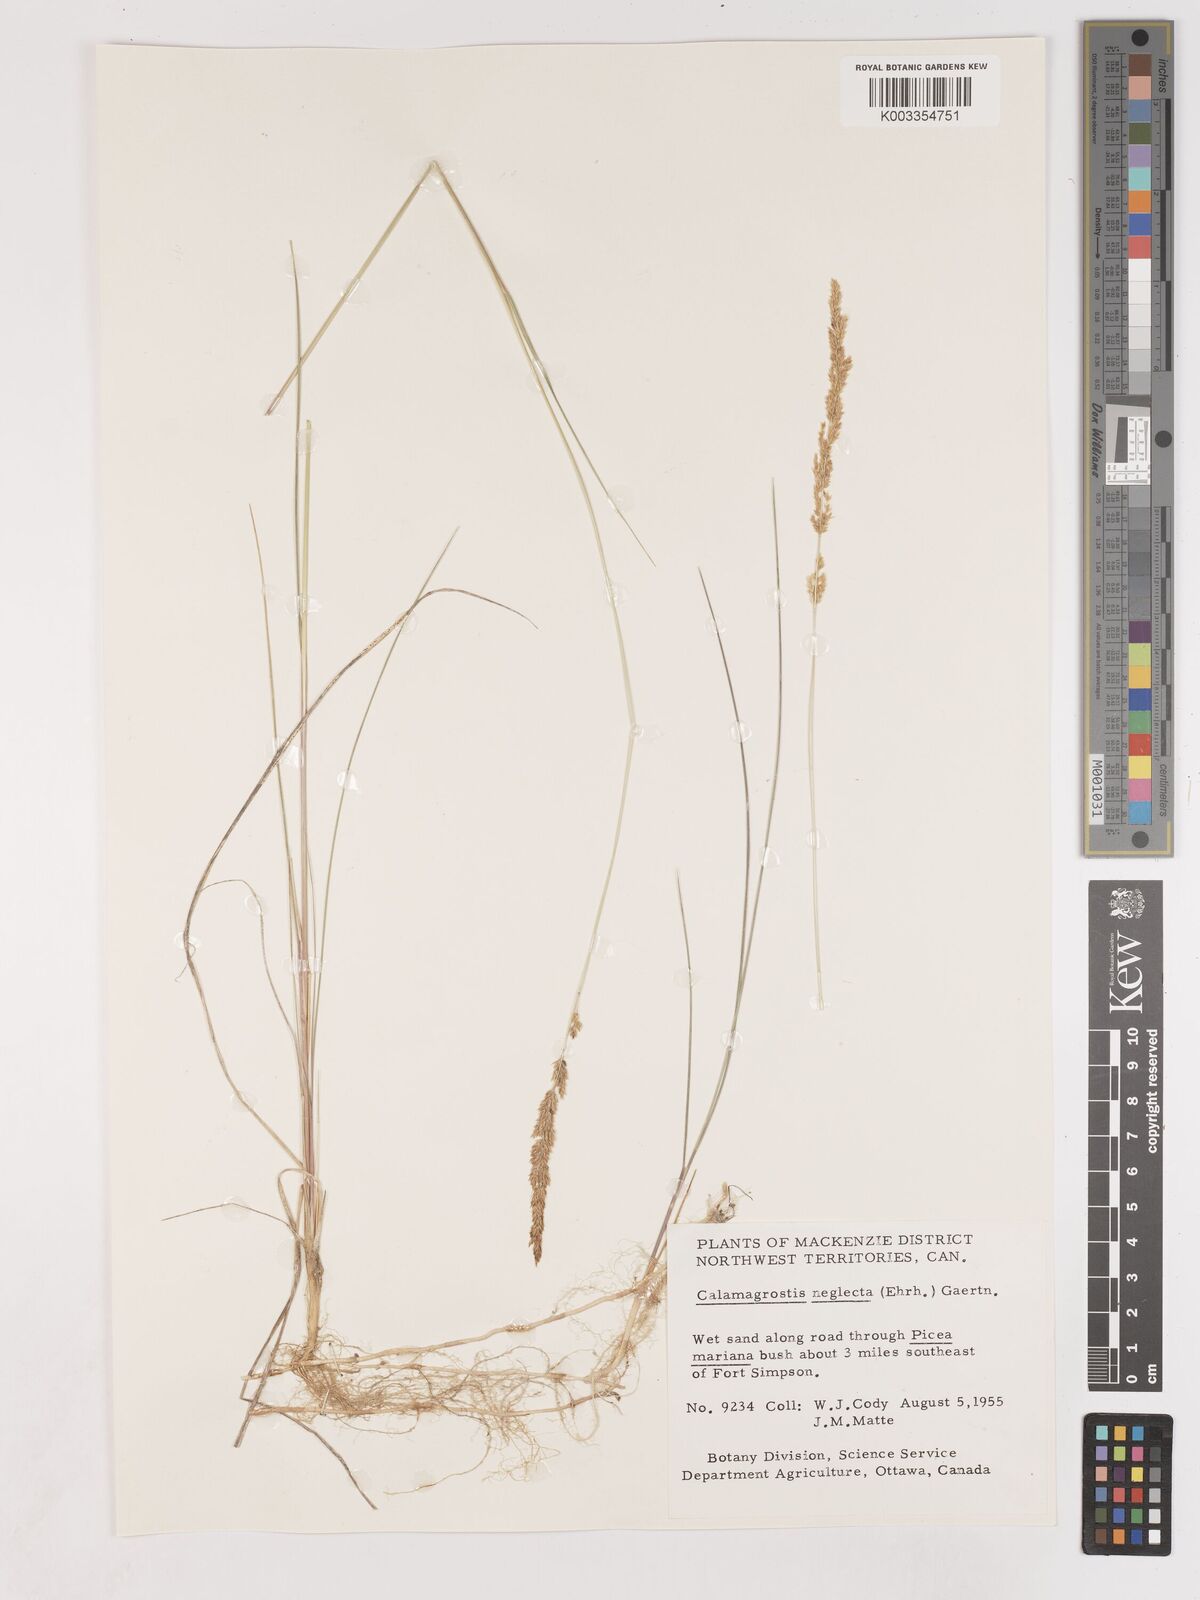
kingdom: Plantae
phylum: Tracheophyta
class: Liliopsida
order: Poales
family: Poaceae
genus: Cinnagrostis
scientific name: Cinnagrostis recta
